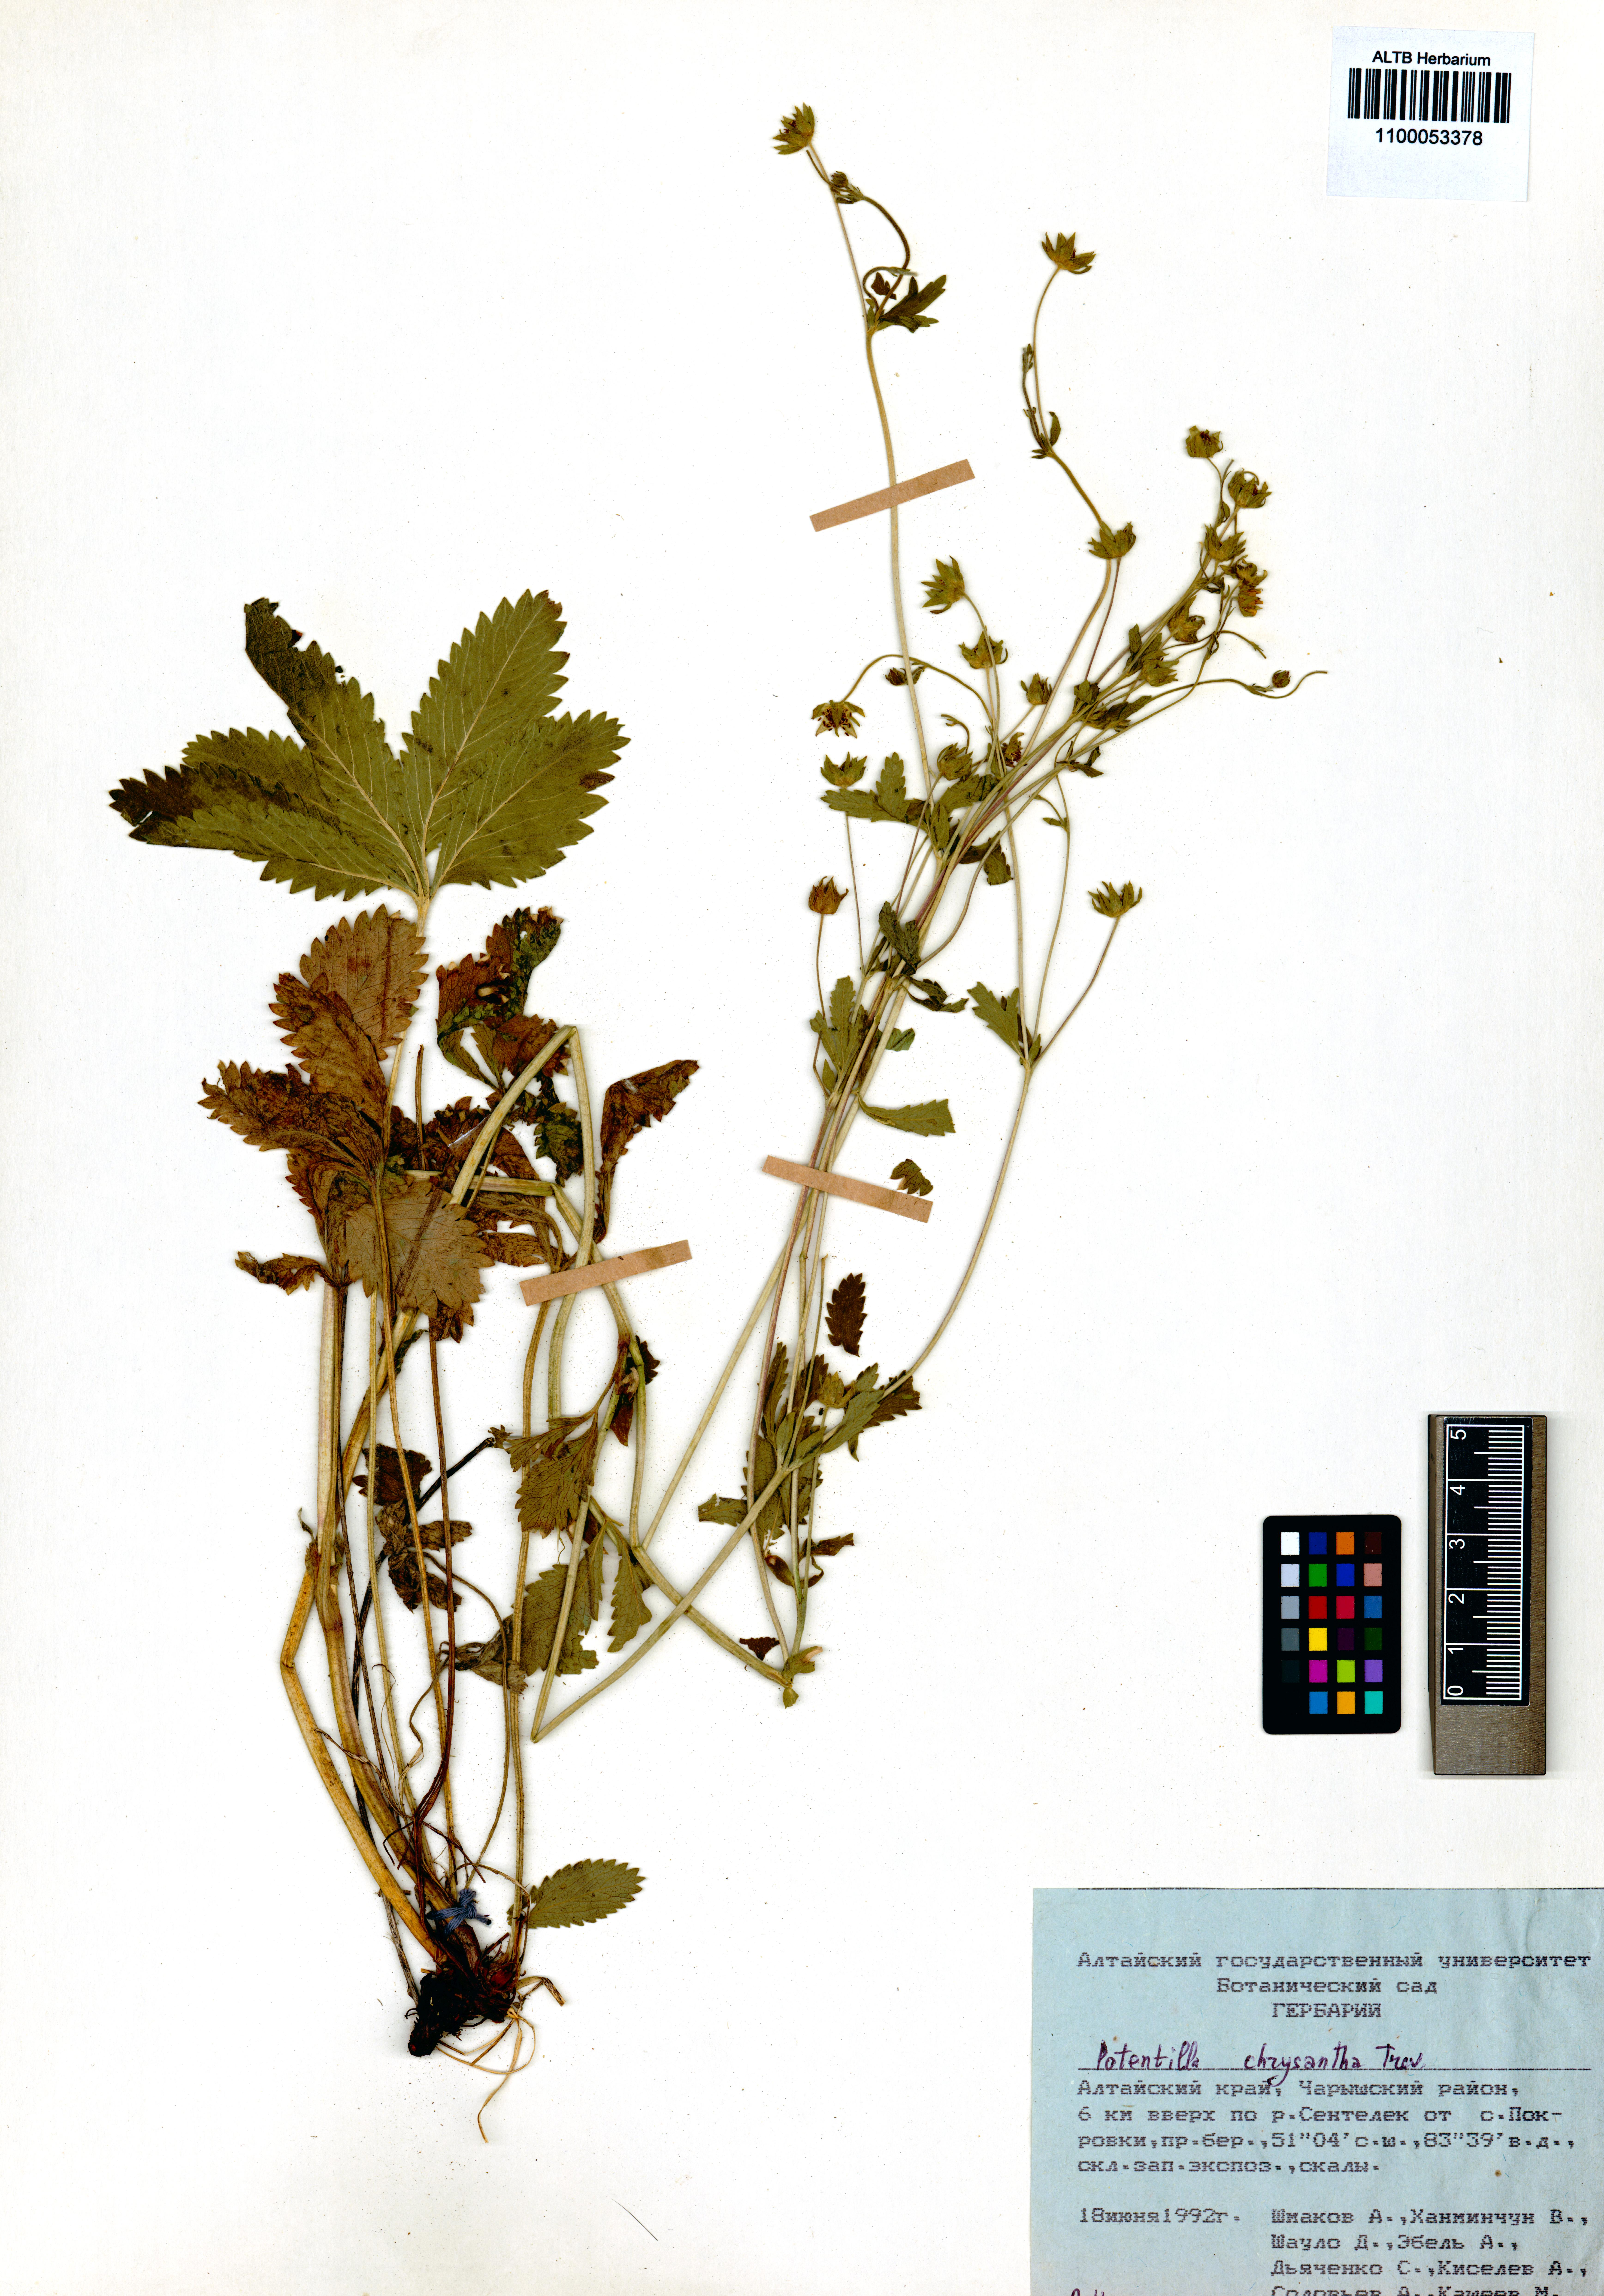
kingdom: Plantae
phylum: Tracheophyta
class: Magnoliopsida
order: Rosales
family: Rosaceae
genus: Potentilla
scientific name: Potentilla chrysantha
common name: Thuringian cinquefoil
